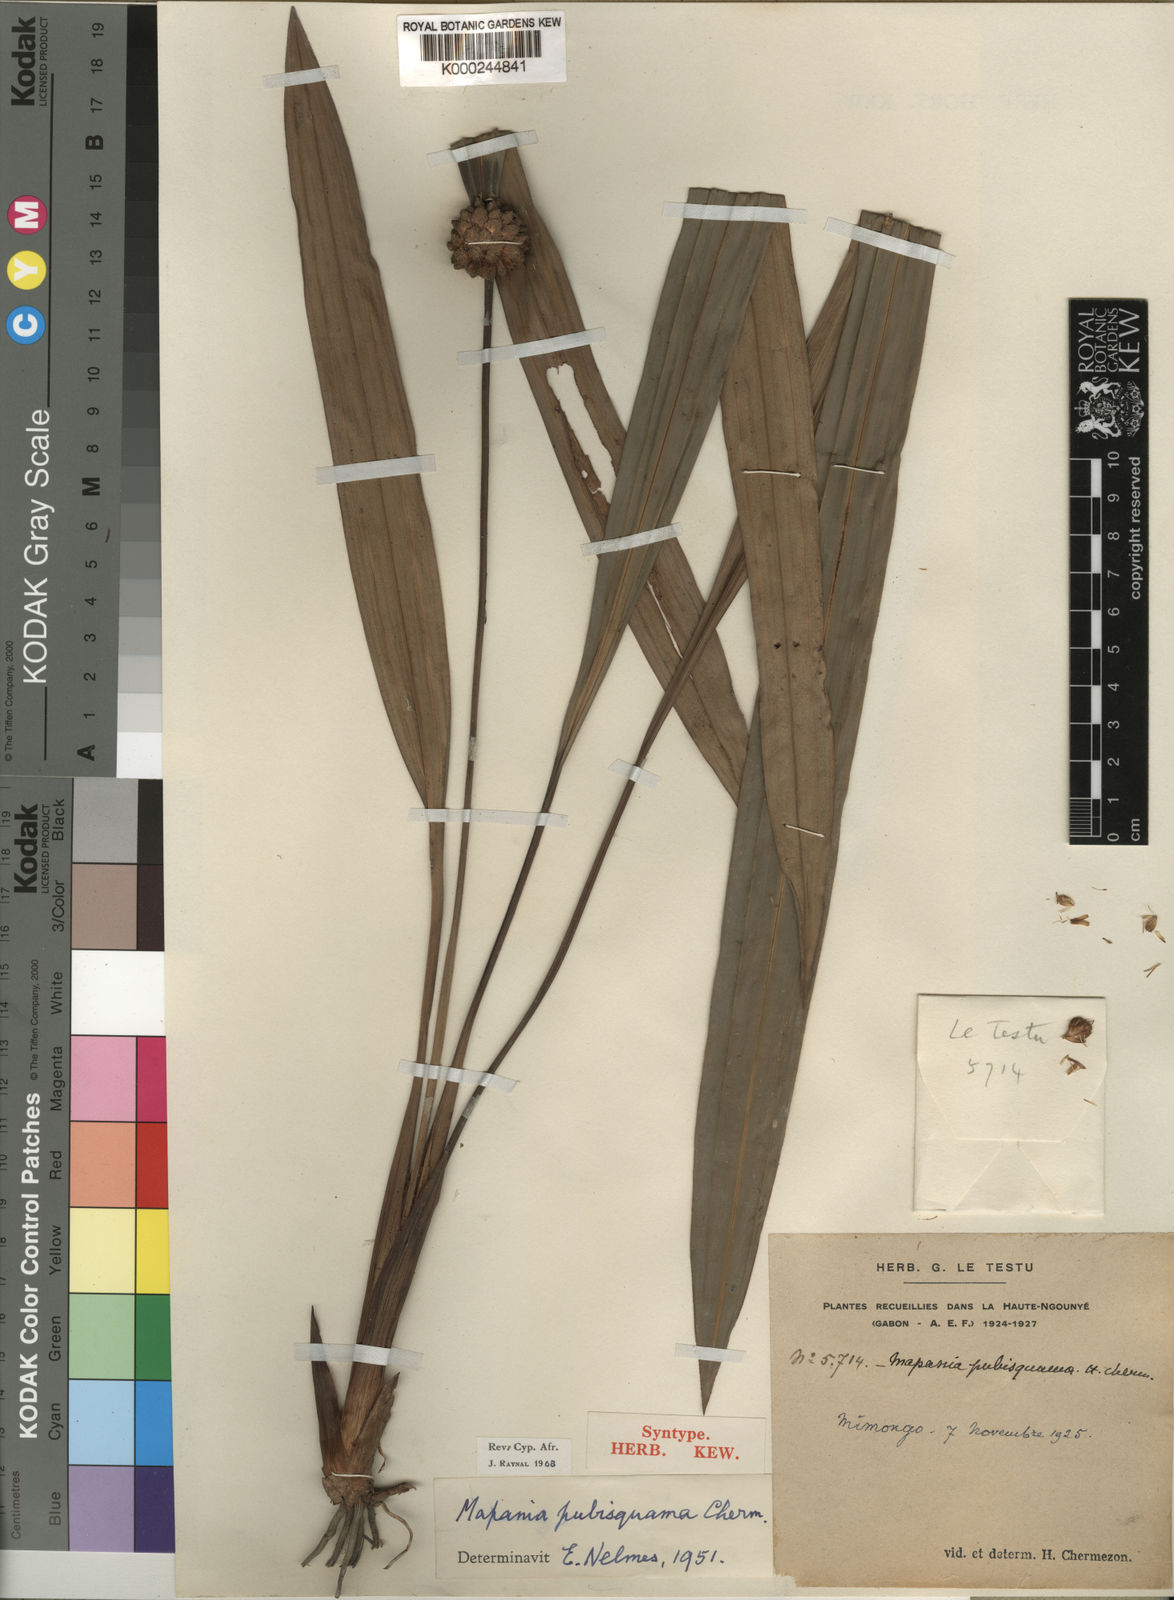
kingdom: Plantae
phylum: Tracheophyta
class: Liliopsida
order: Poales
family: Cyperaceae
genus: Mapania
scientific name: Mapania pubisquama
